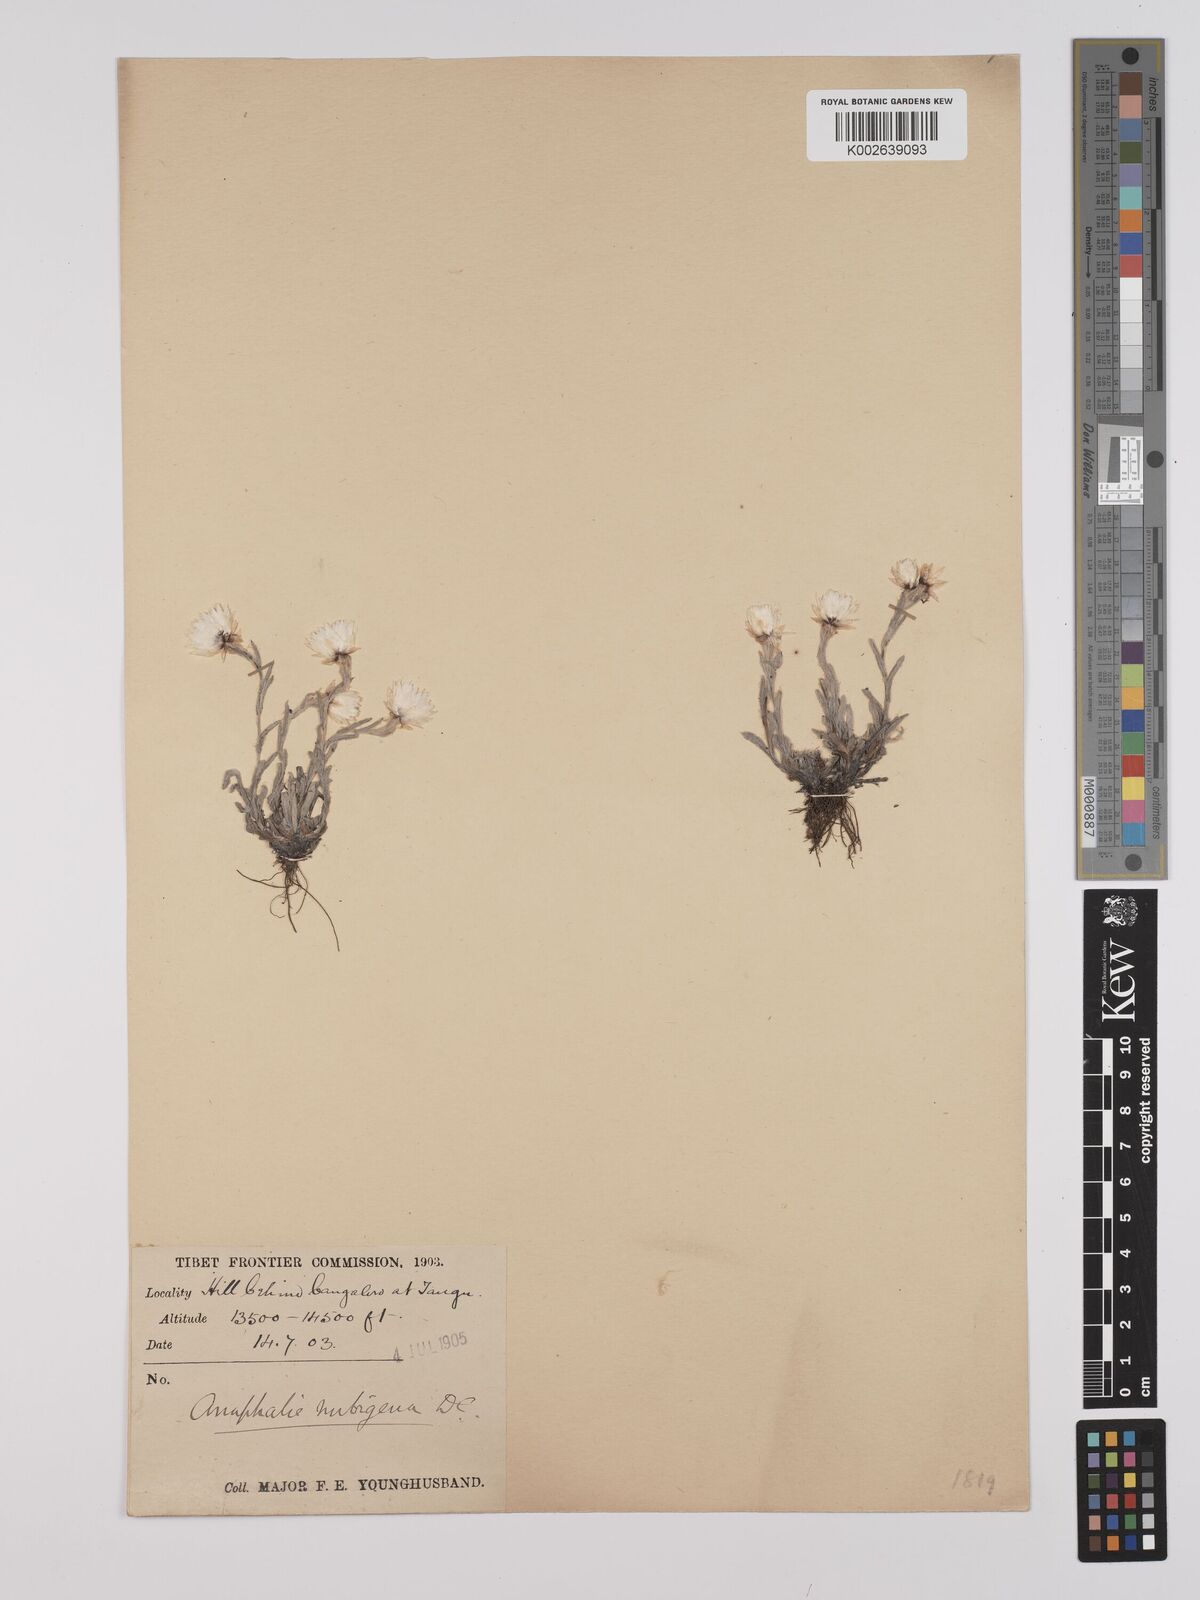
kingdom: Plantae
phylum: Tracheophyta
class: Magnoliopsida
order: Asterales
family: Asteraceae
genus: Anaphalis
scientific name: Anaphalis nepalensis
